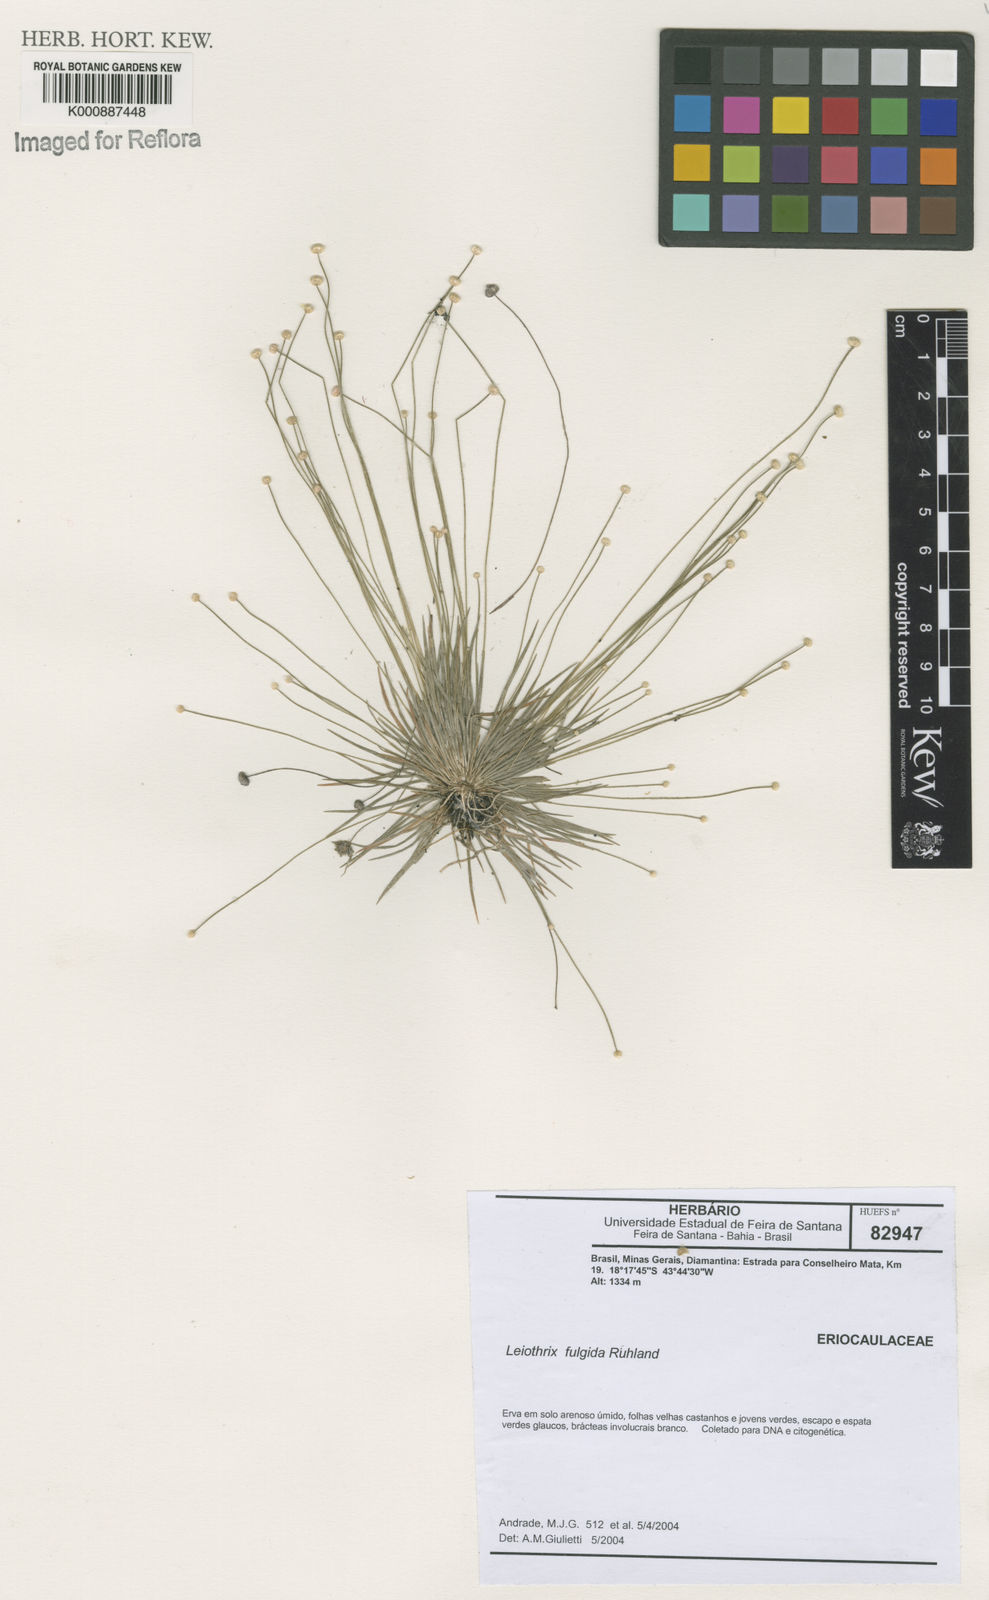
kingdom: Plantae
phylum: Tracheophyta
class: Liliopsida
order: Poales
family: Eriocaulaceae
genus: Leiothrix
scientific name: Leiothrix fulgida
